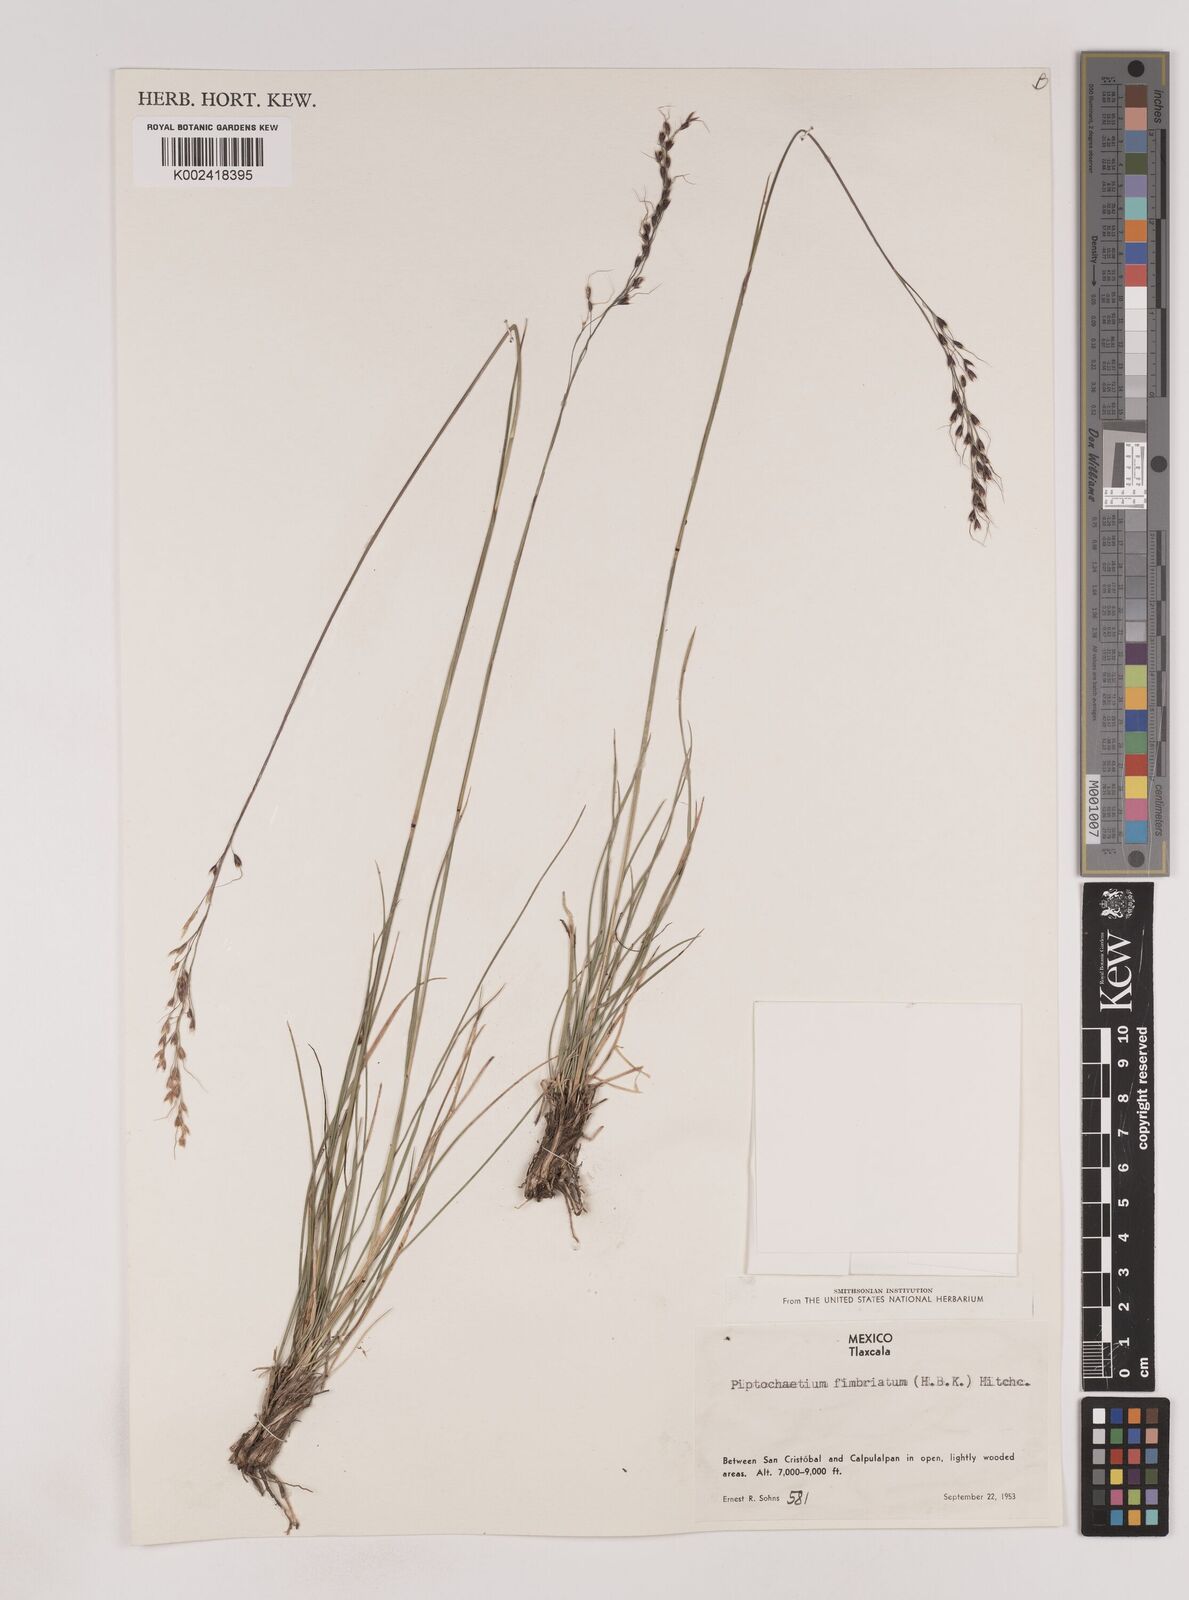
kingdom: Plantae
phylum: Tracheophyta
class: Liliopsida
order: Poales
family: Poaceae
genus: Piptochaetium
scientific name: Piptochaetium fimbriatum
